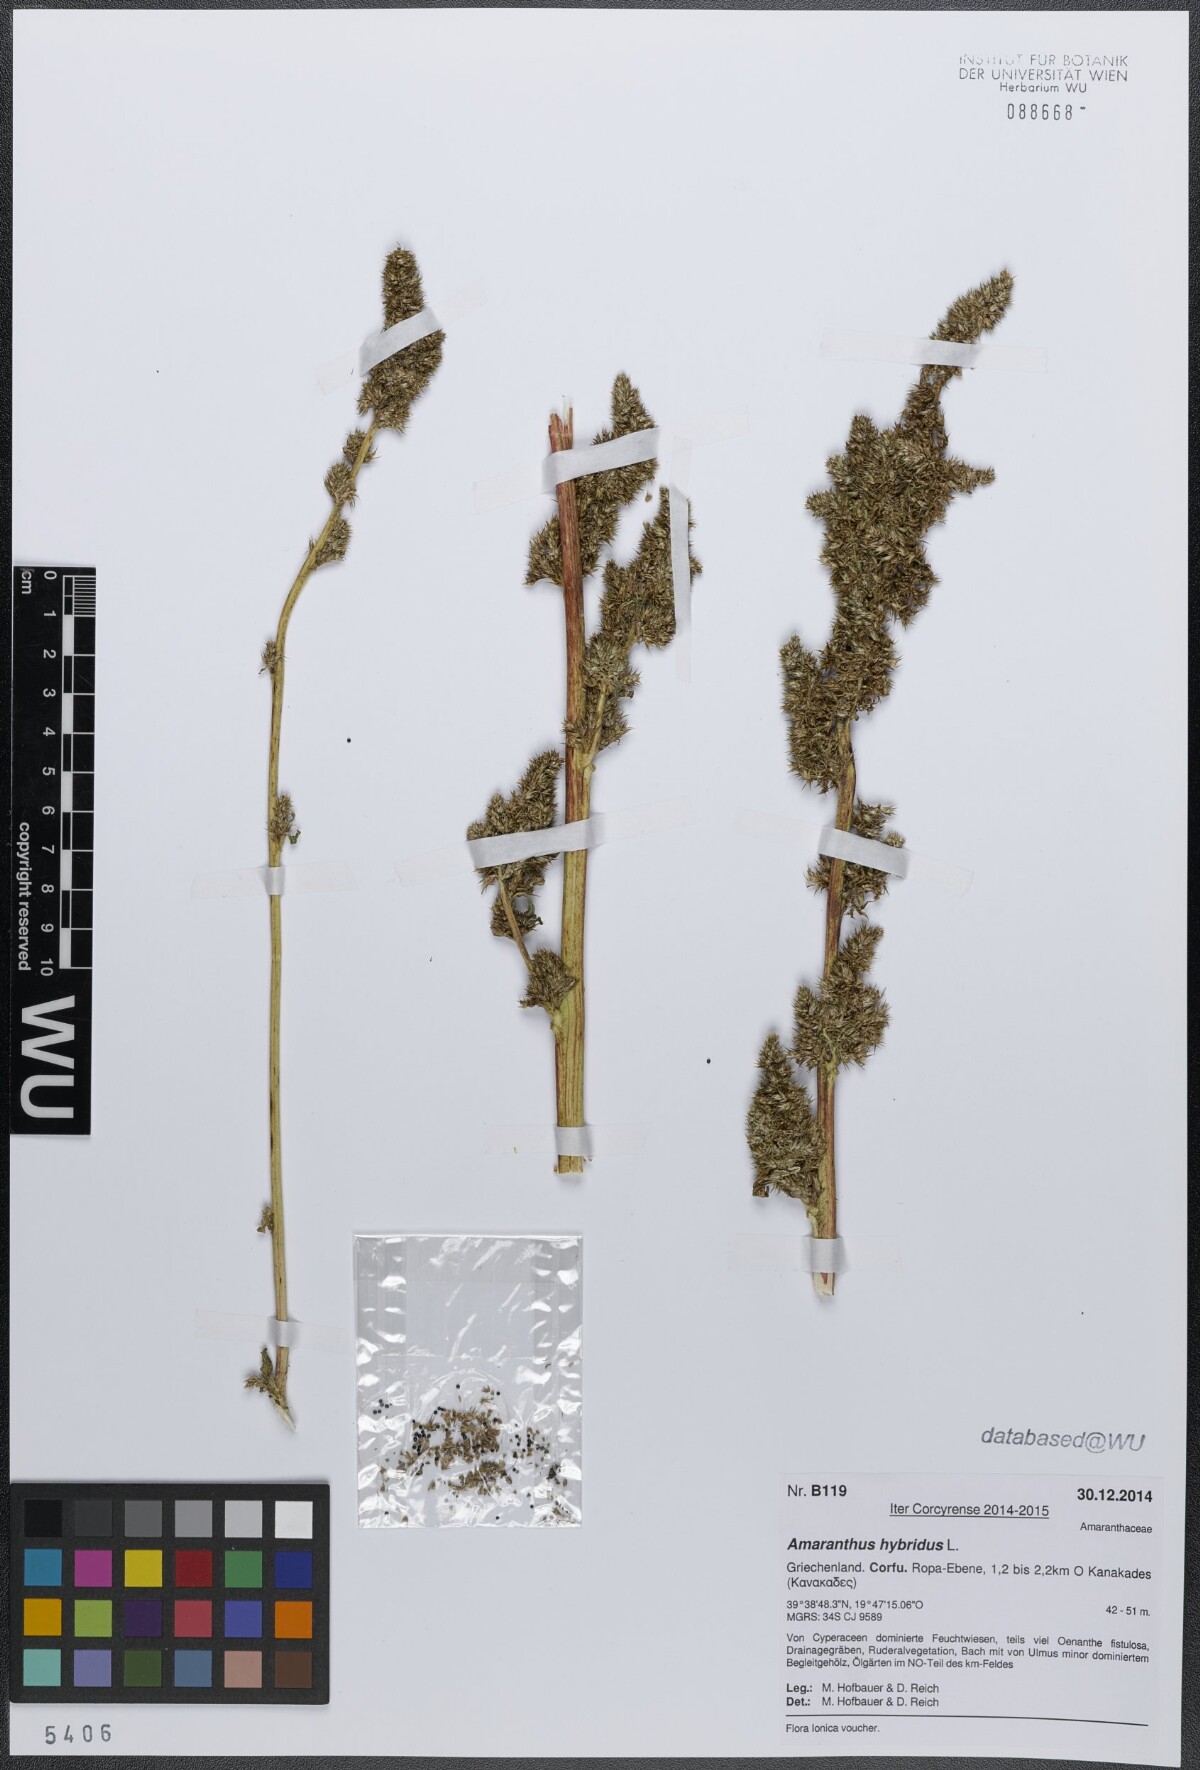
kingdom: Plantae
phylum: Tracheophyta
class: Magnoliopsida
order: Caryophyllales
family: Amaranthaceae
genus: Amaranthus
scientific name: Amaranthus hybridus
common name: Green amaranth
